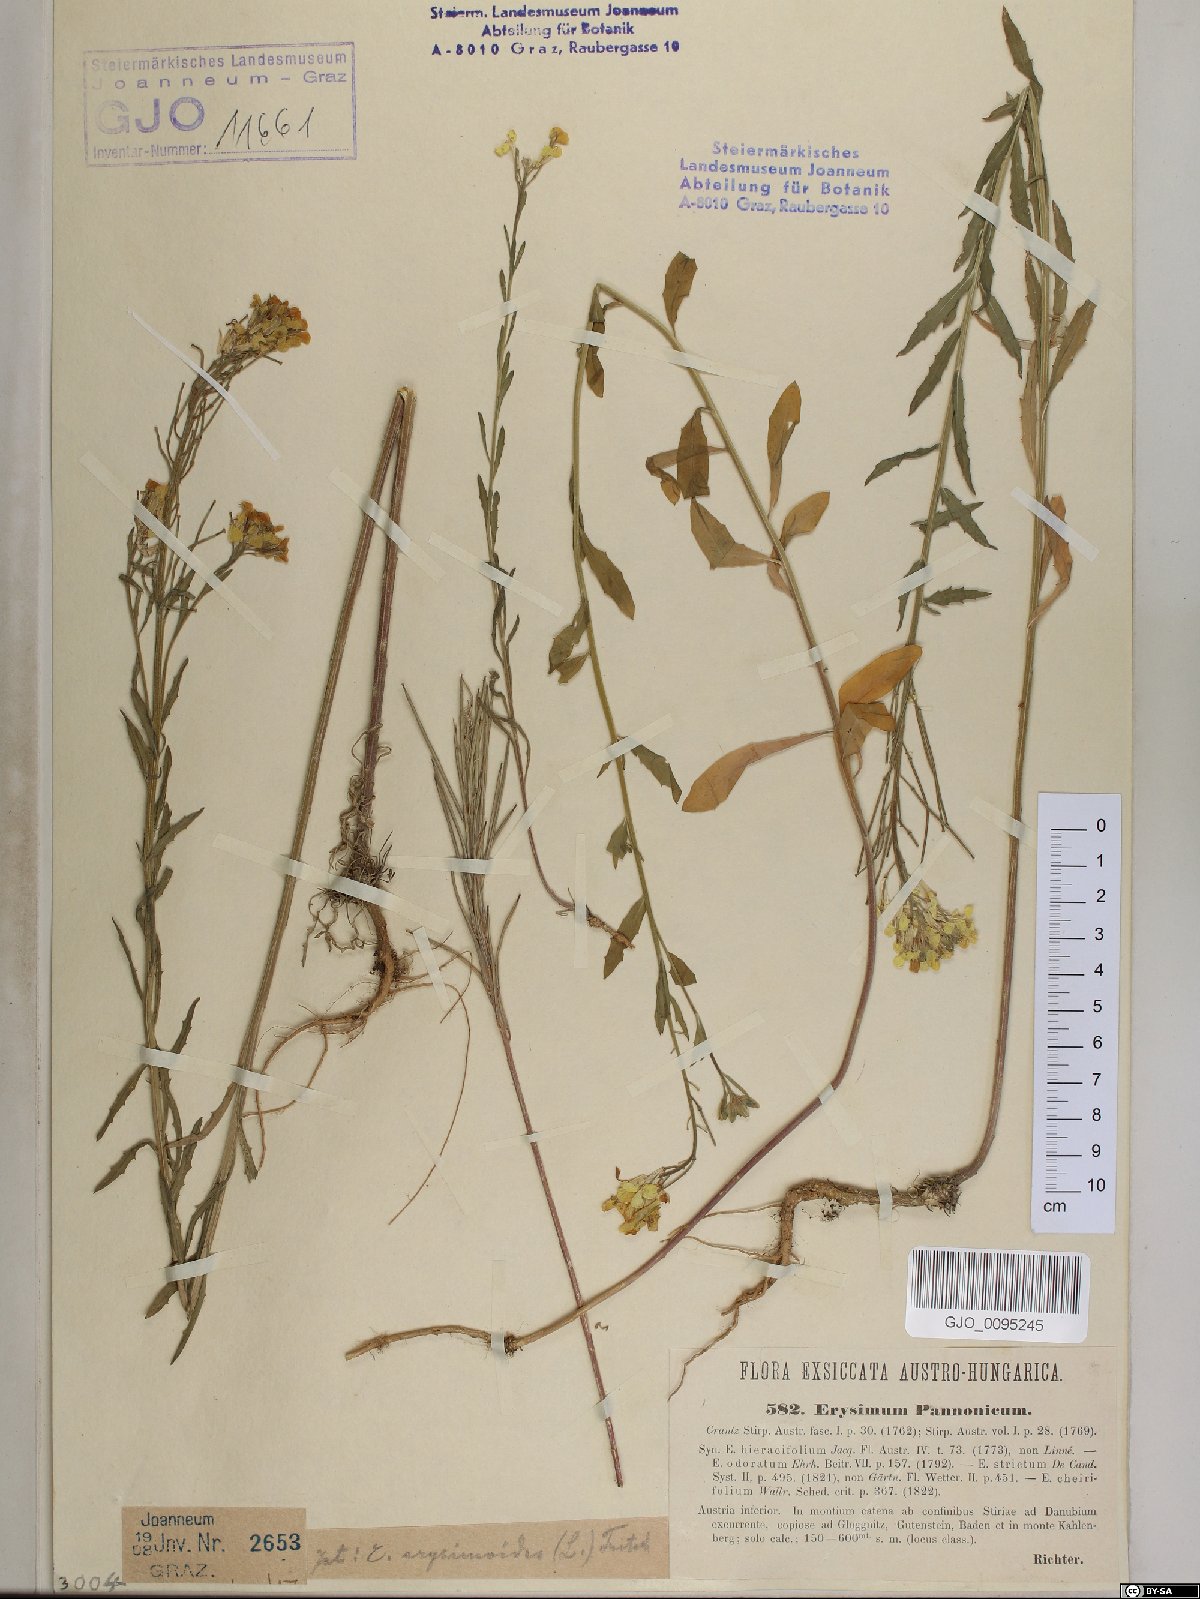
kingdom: Plantae
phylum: Tracheophyta
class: Magnoliopsida
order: Brassicales
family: Brassicaceae
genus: Erysimum
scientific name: Erysimum odoratum
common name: Smelly wallflower
